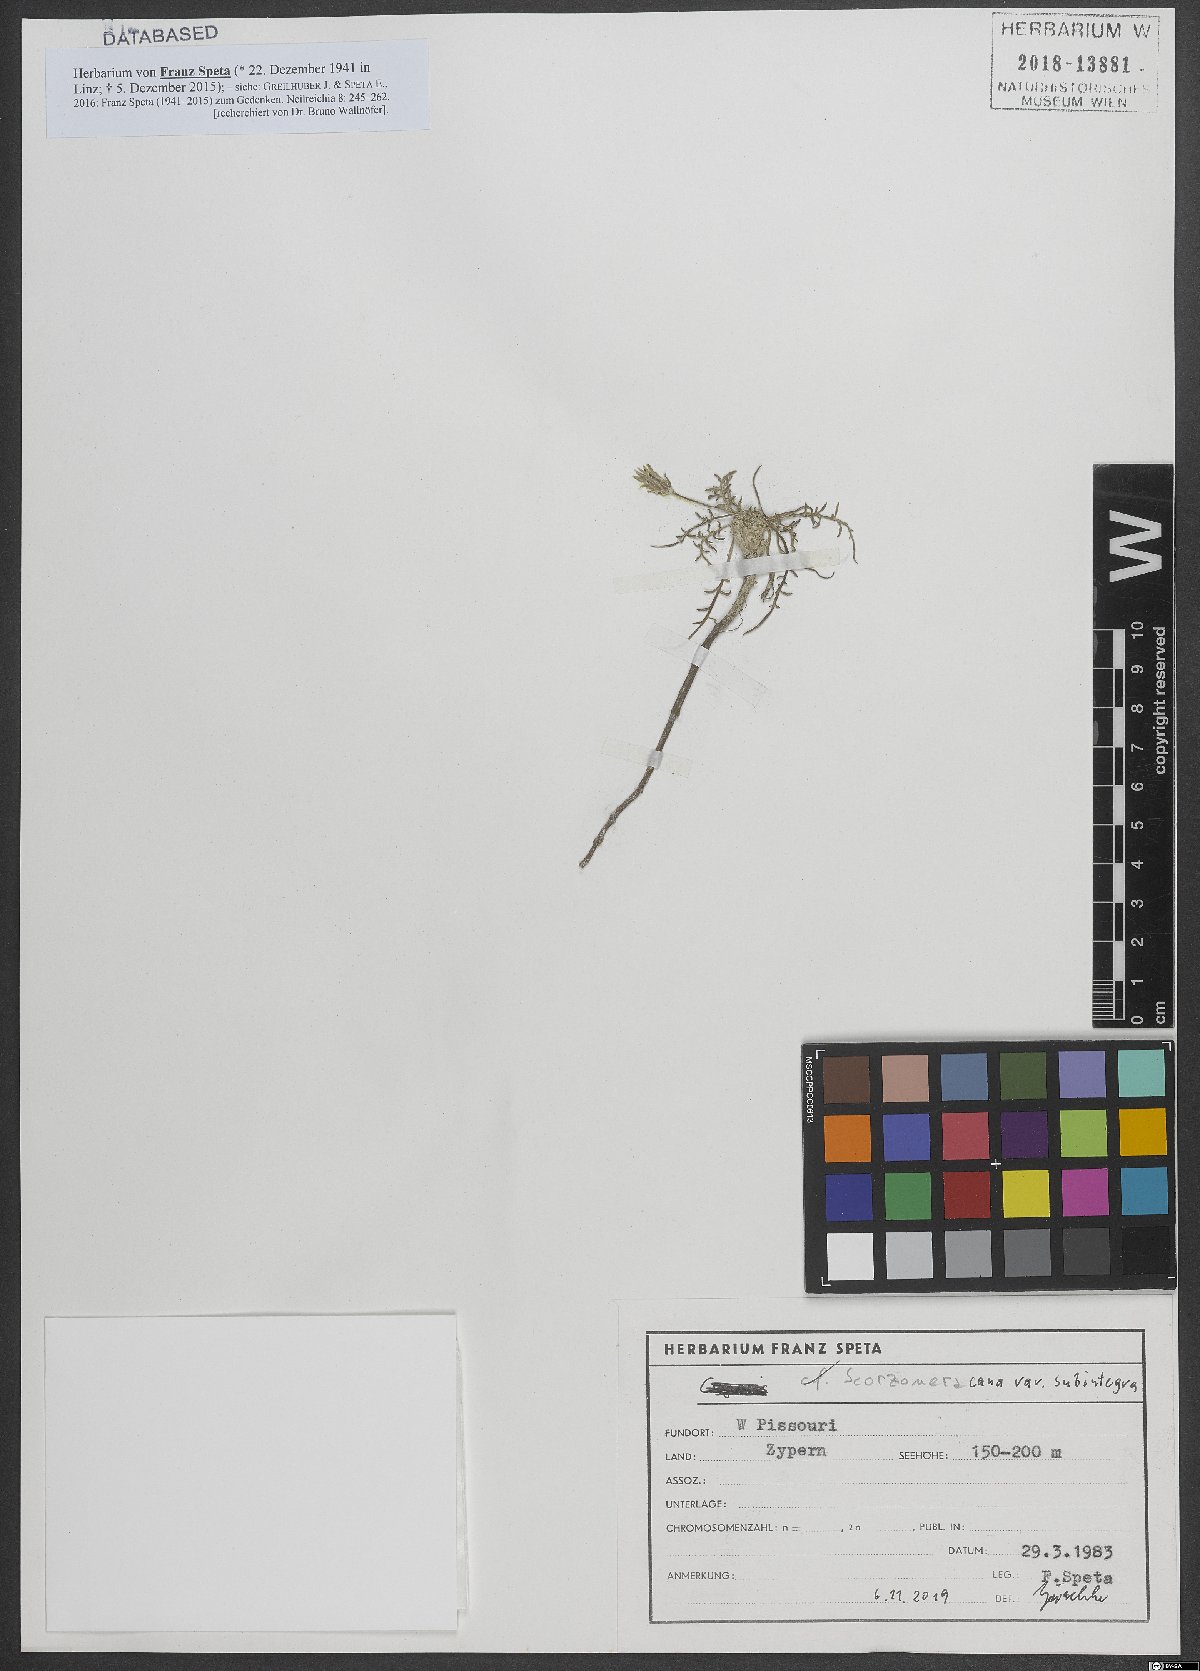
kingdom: Plantae
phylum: Tracheophyta
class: Magnoliopsida
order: Asterales
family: Asteraceae
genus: Scorzonera
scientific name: Scorzonera alpigena
